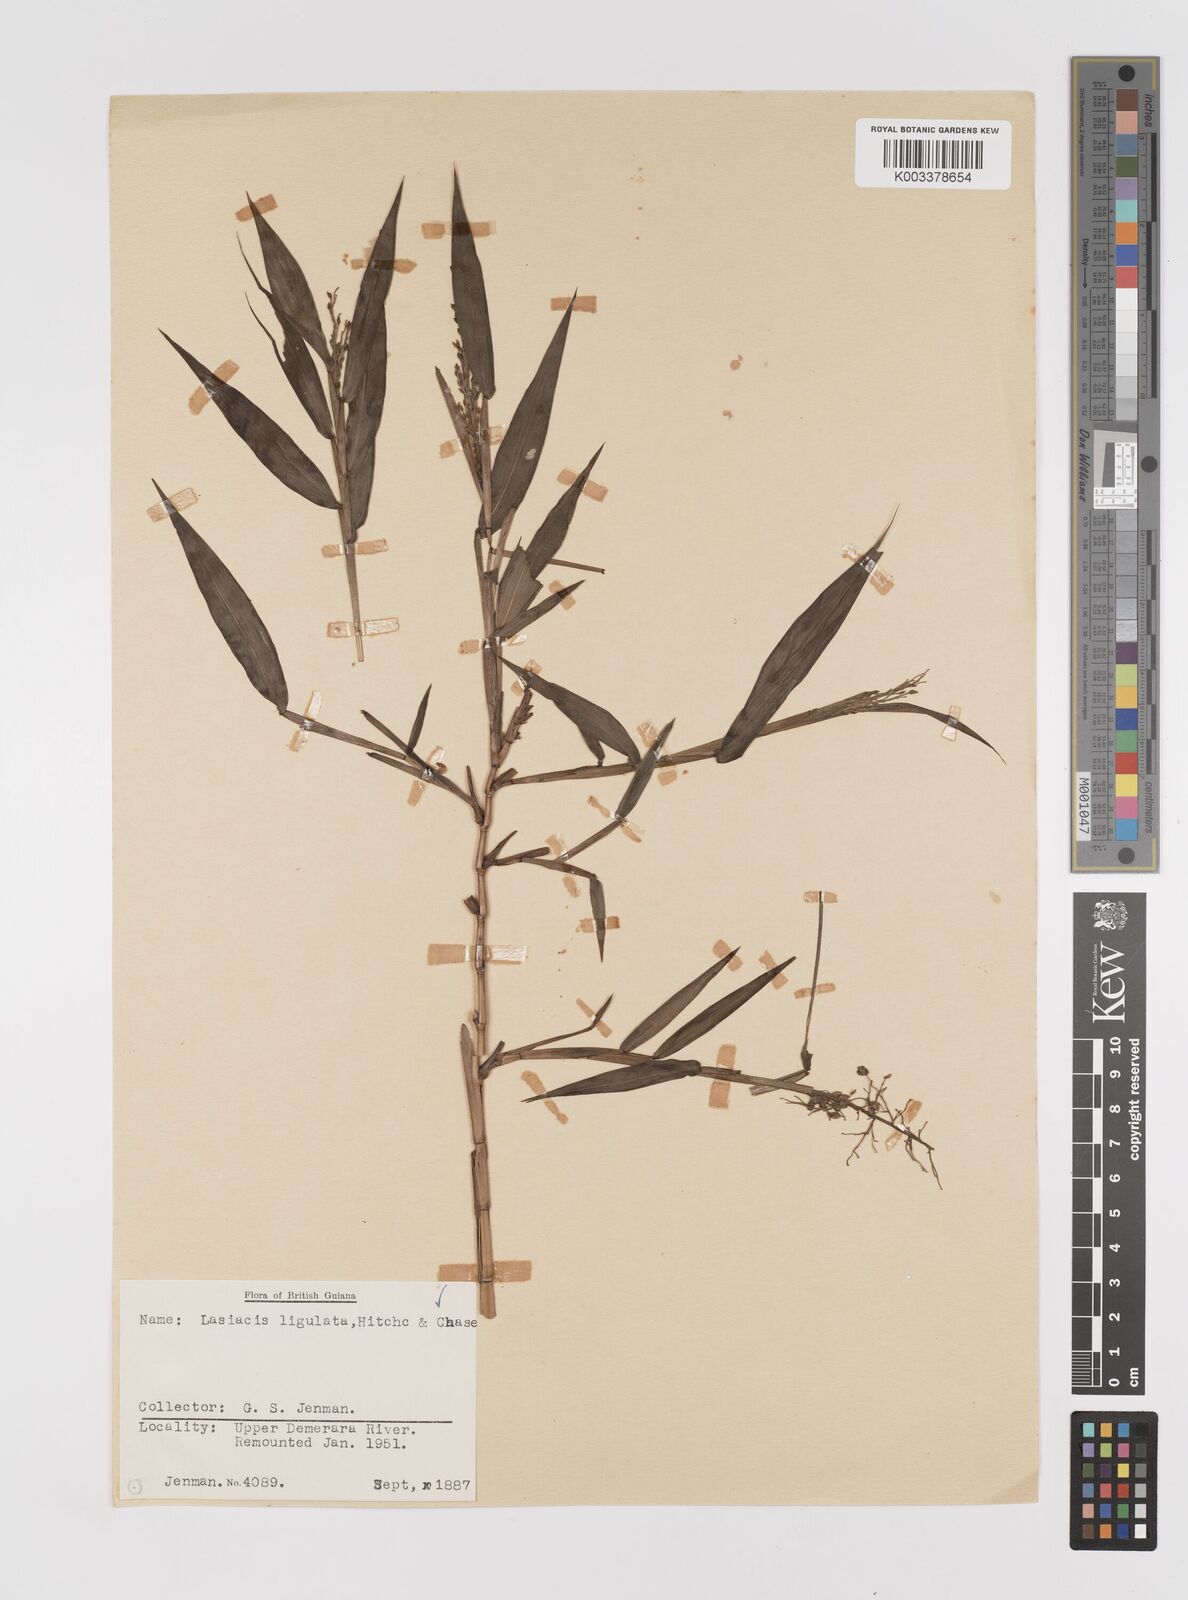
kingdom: Plantae
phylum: Tracheophyta
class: Liliopsida
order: Poales
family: Poaceae
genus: Lasiacis
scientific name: Lasiacis ligulata
